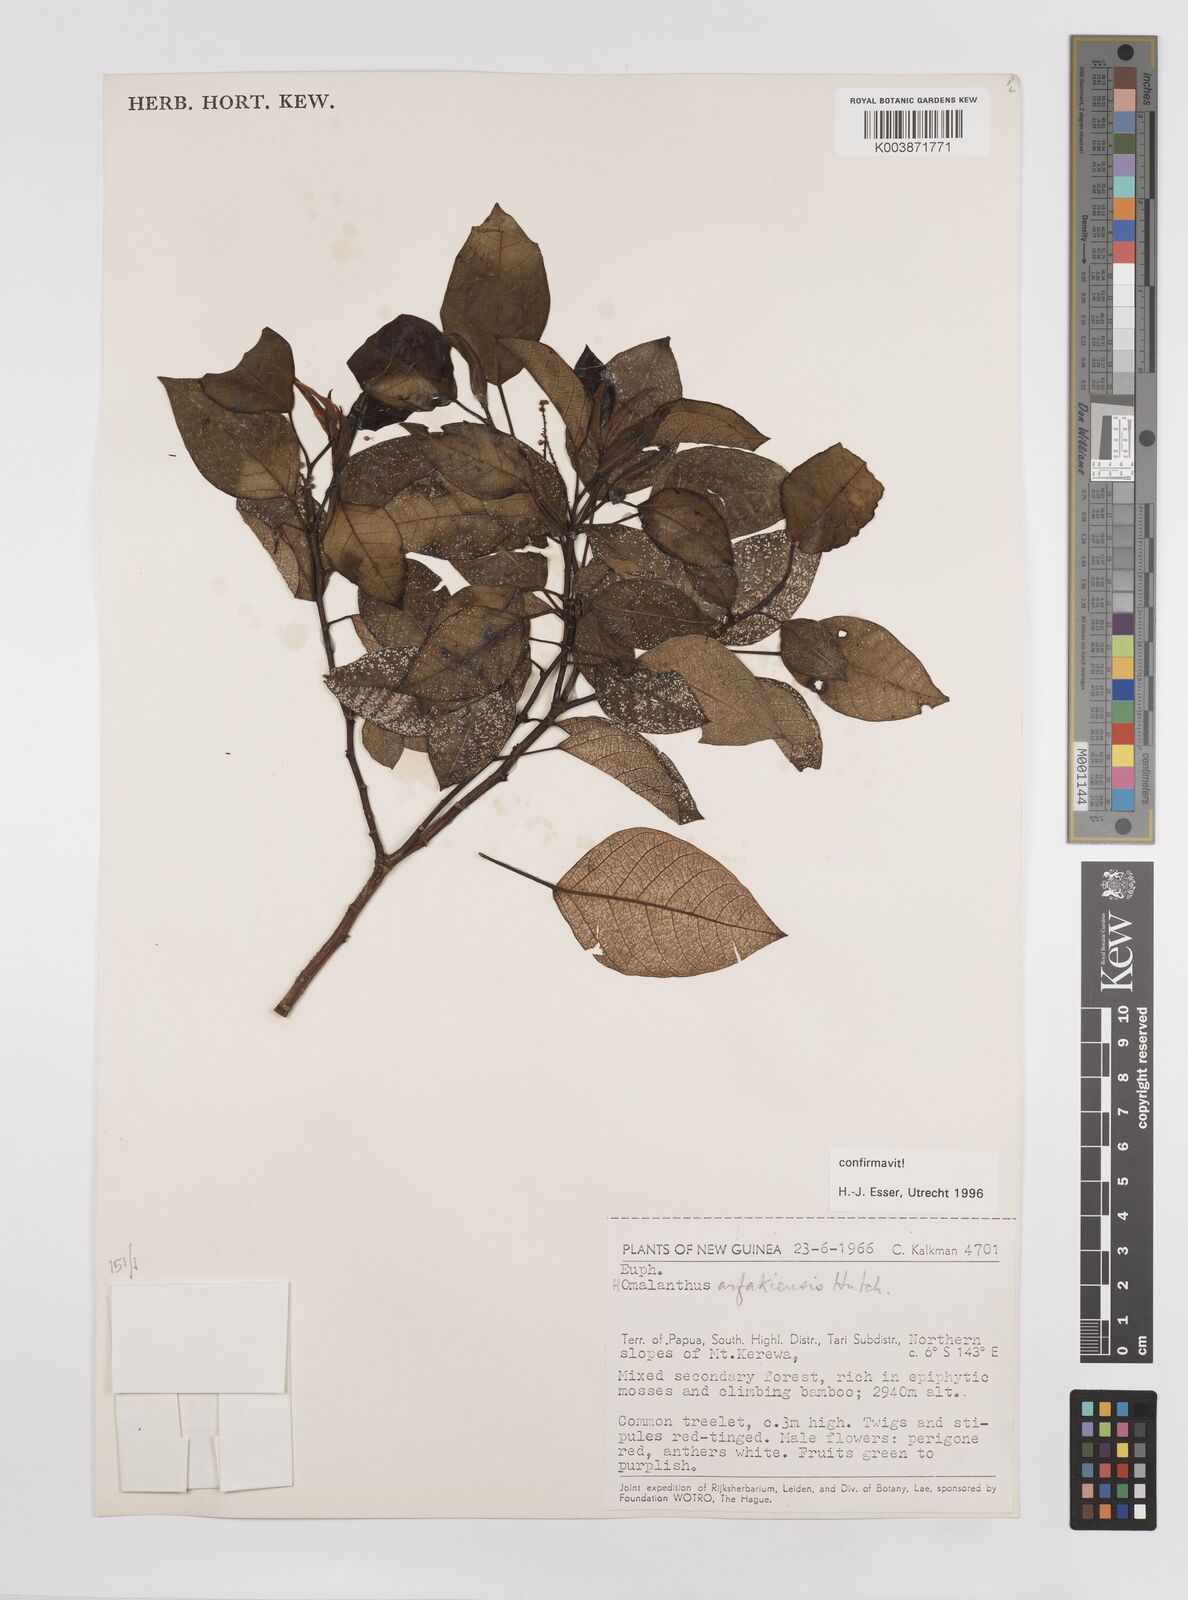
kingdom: Plantae
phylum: Tracheophyta
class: Magnoliopsida
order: Malpighiales
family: Euphorbiaceae
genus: Homalanthus
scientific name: Homalanthus arfakiensis
